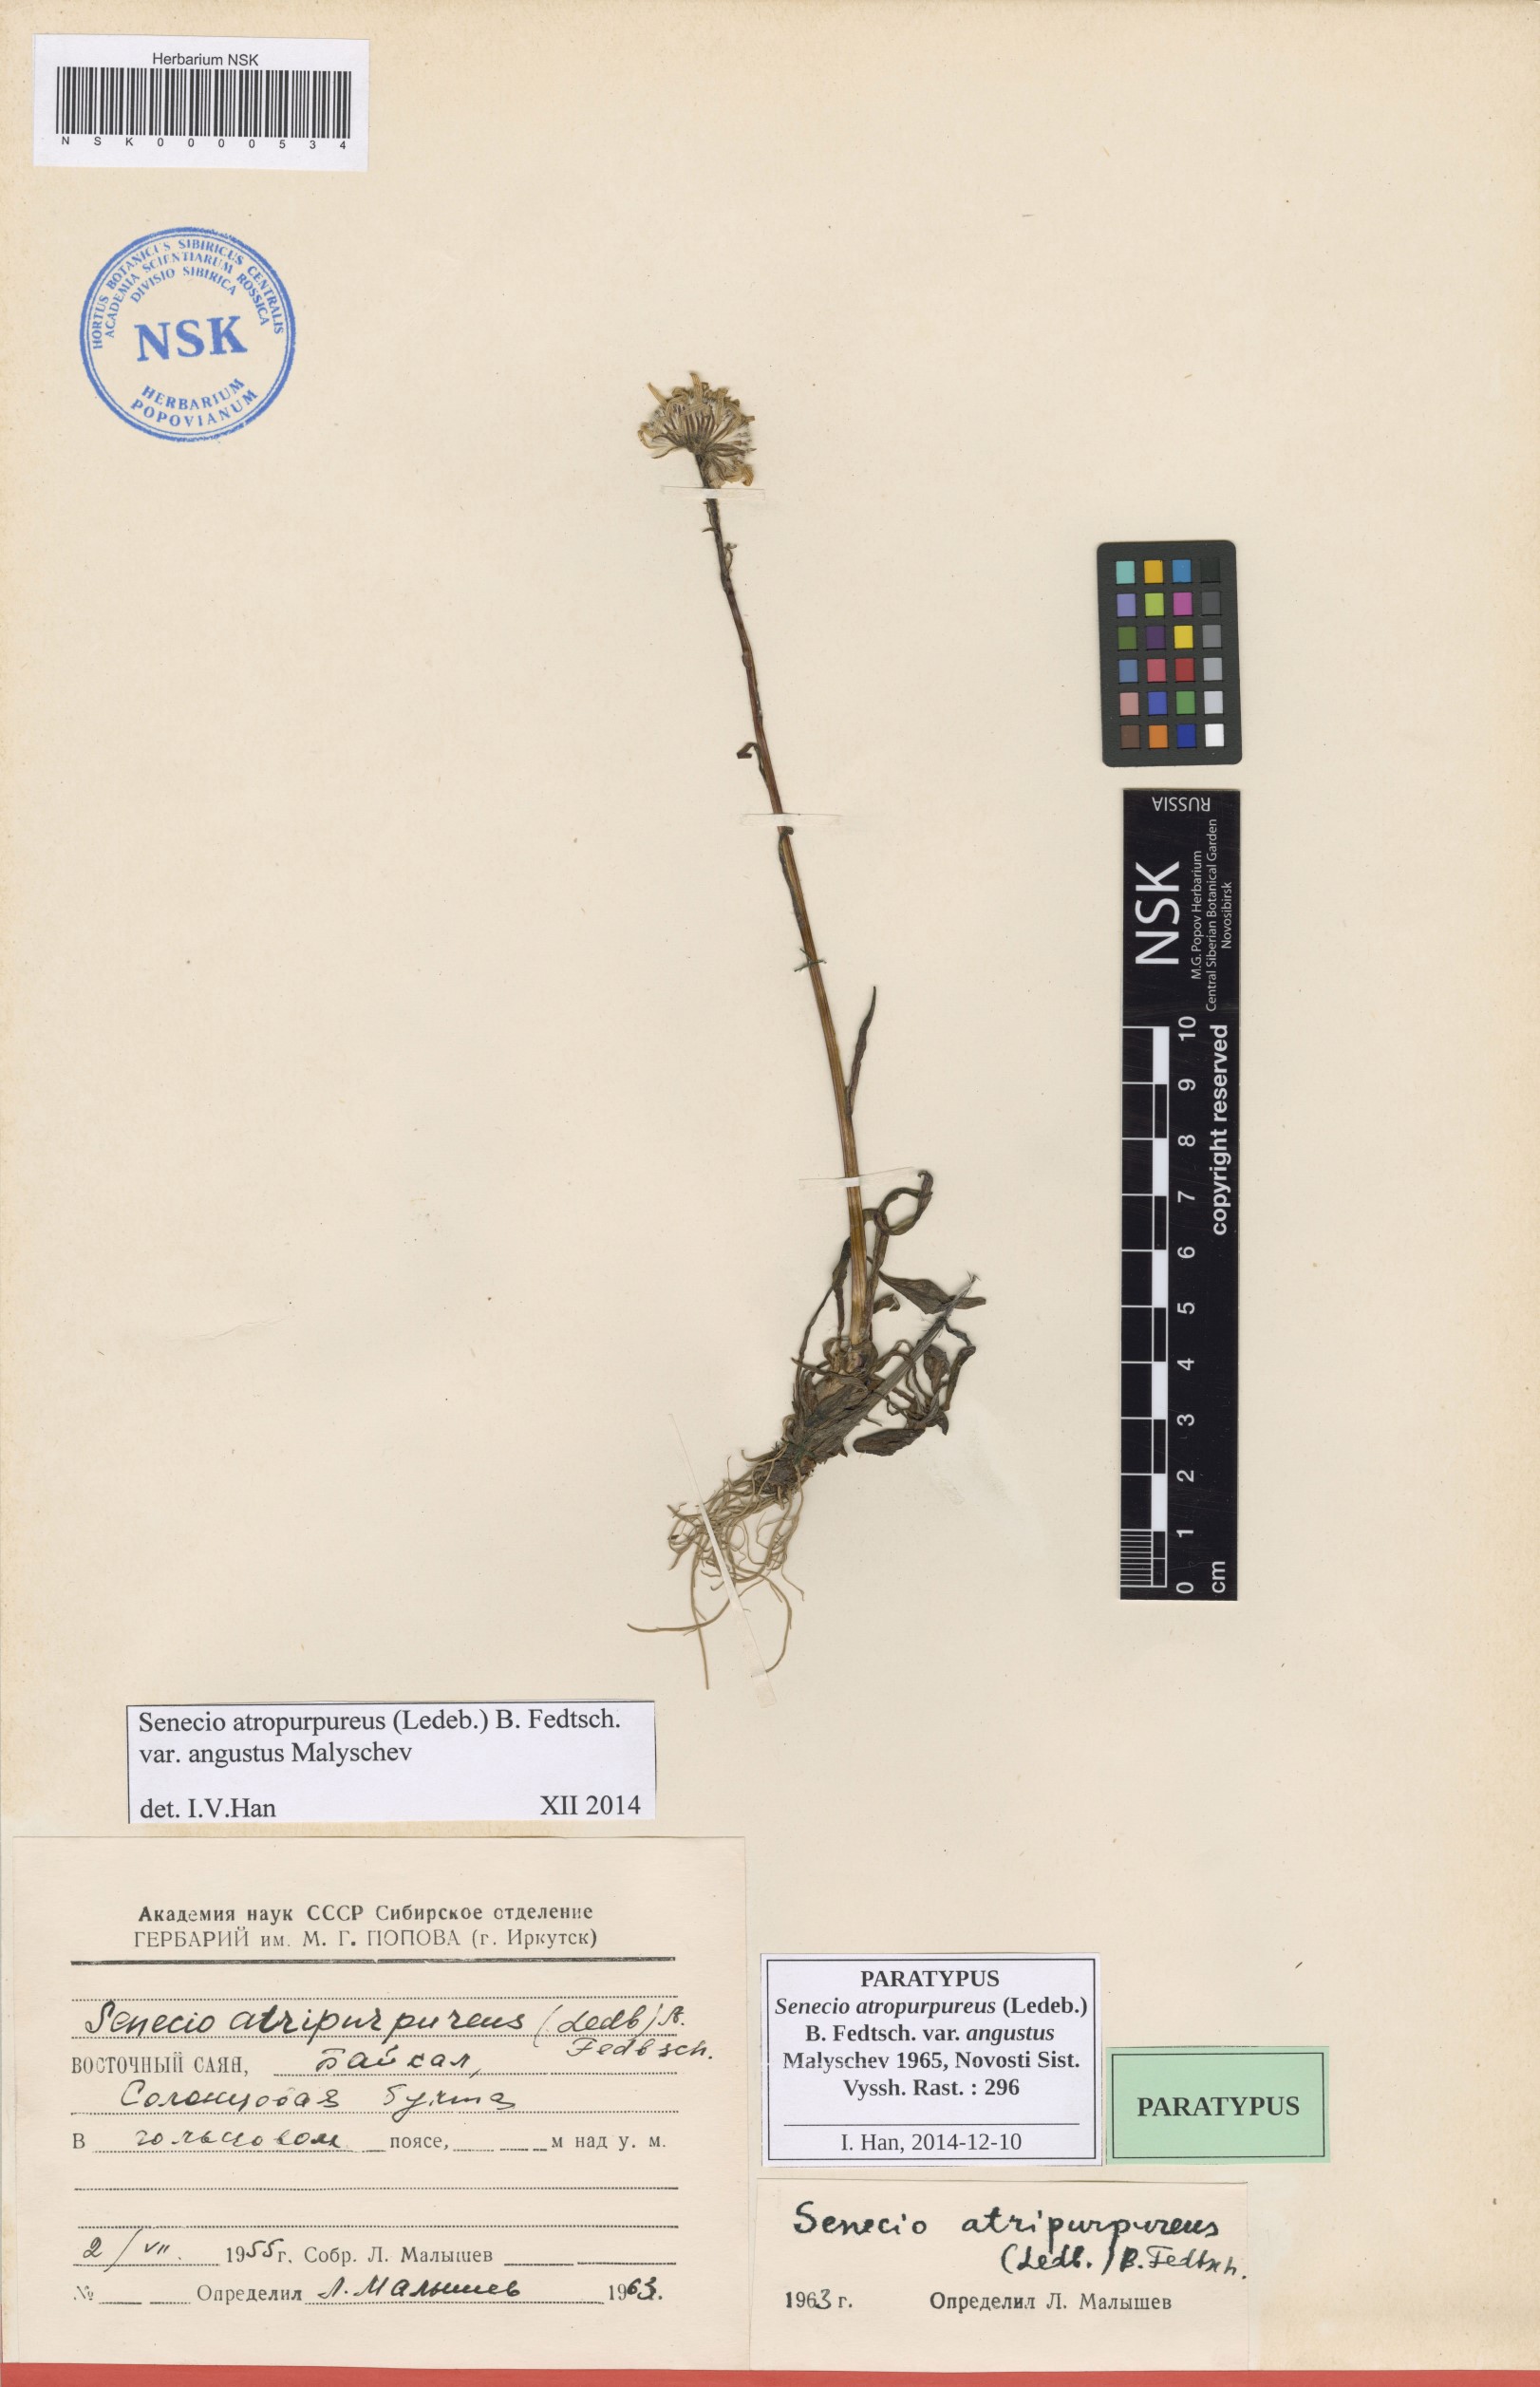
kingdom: Plantae
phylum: Tracheophyta
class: Magnoliopsida
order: Asterales
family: Asteraceae
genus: Tephroseris
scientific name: Tephroseris integrifolia
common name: Field fleawort
